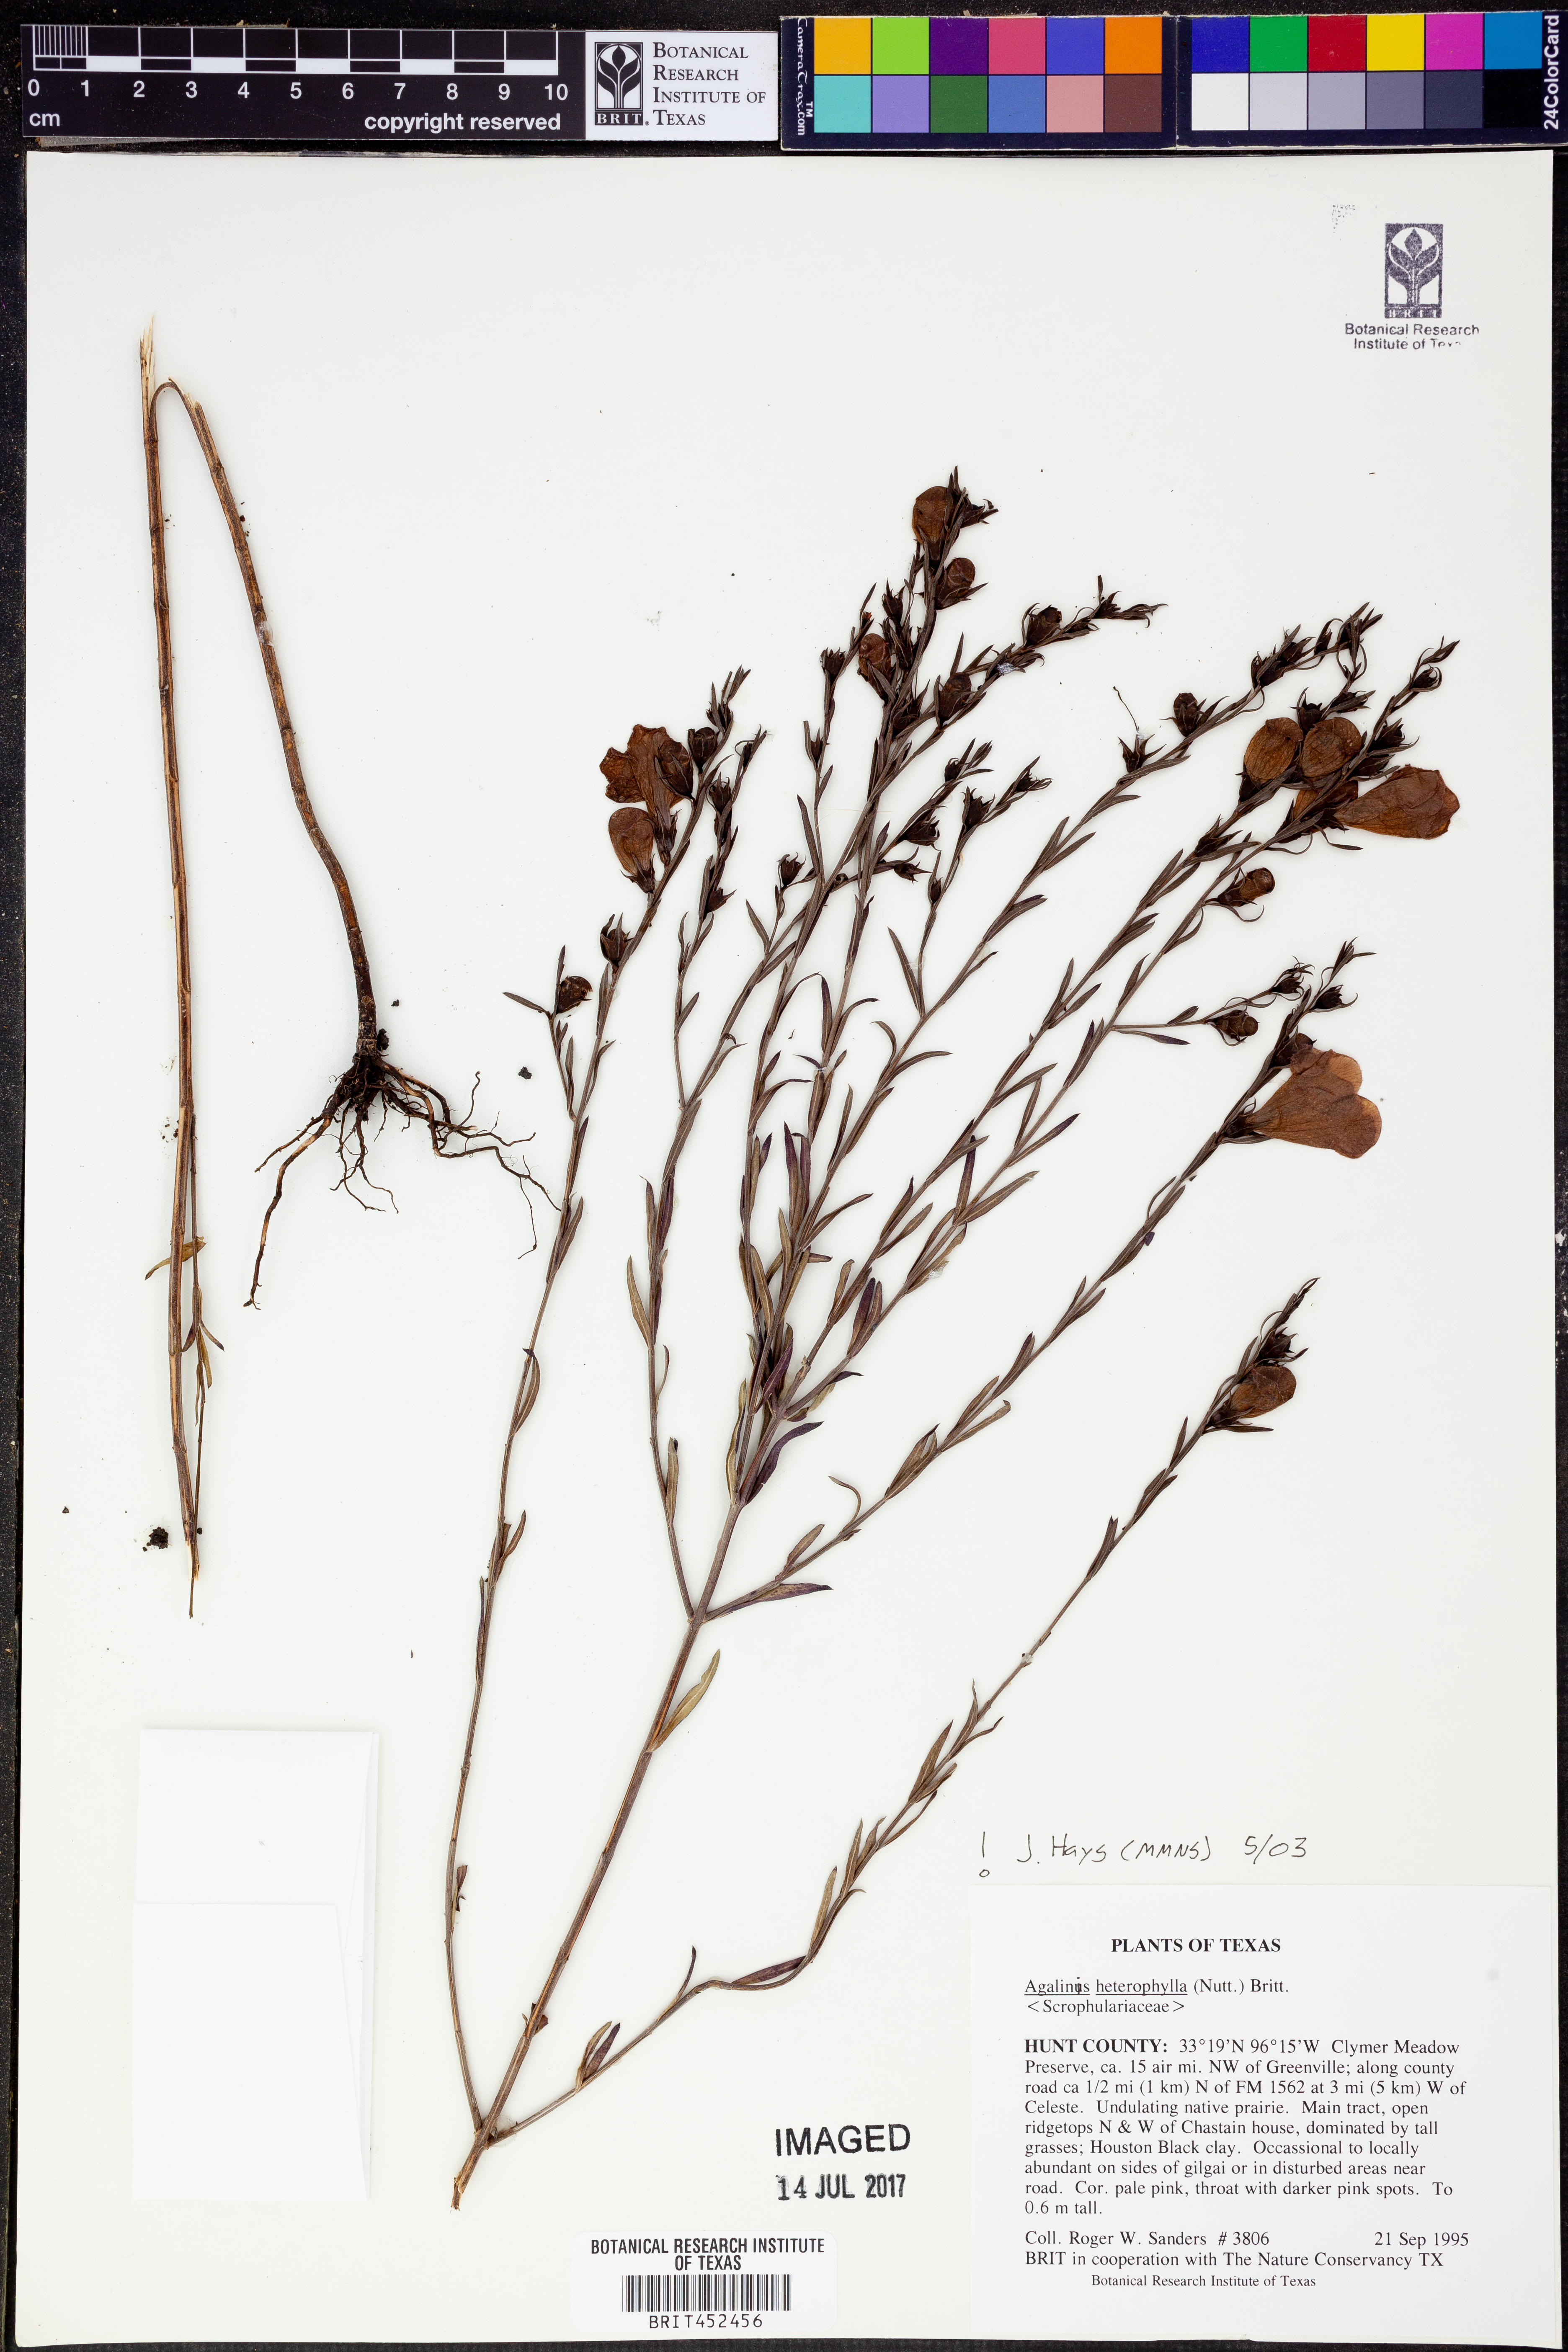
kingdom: Plantae
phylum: Tracheophyta
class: Magnoliopsida
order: Lamiales
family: Orobanchaceae
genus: Agalinis
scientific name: Agalinis heterophylla
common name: Prairie agalinis
